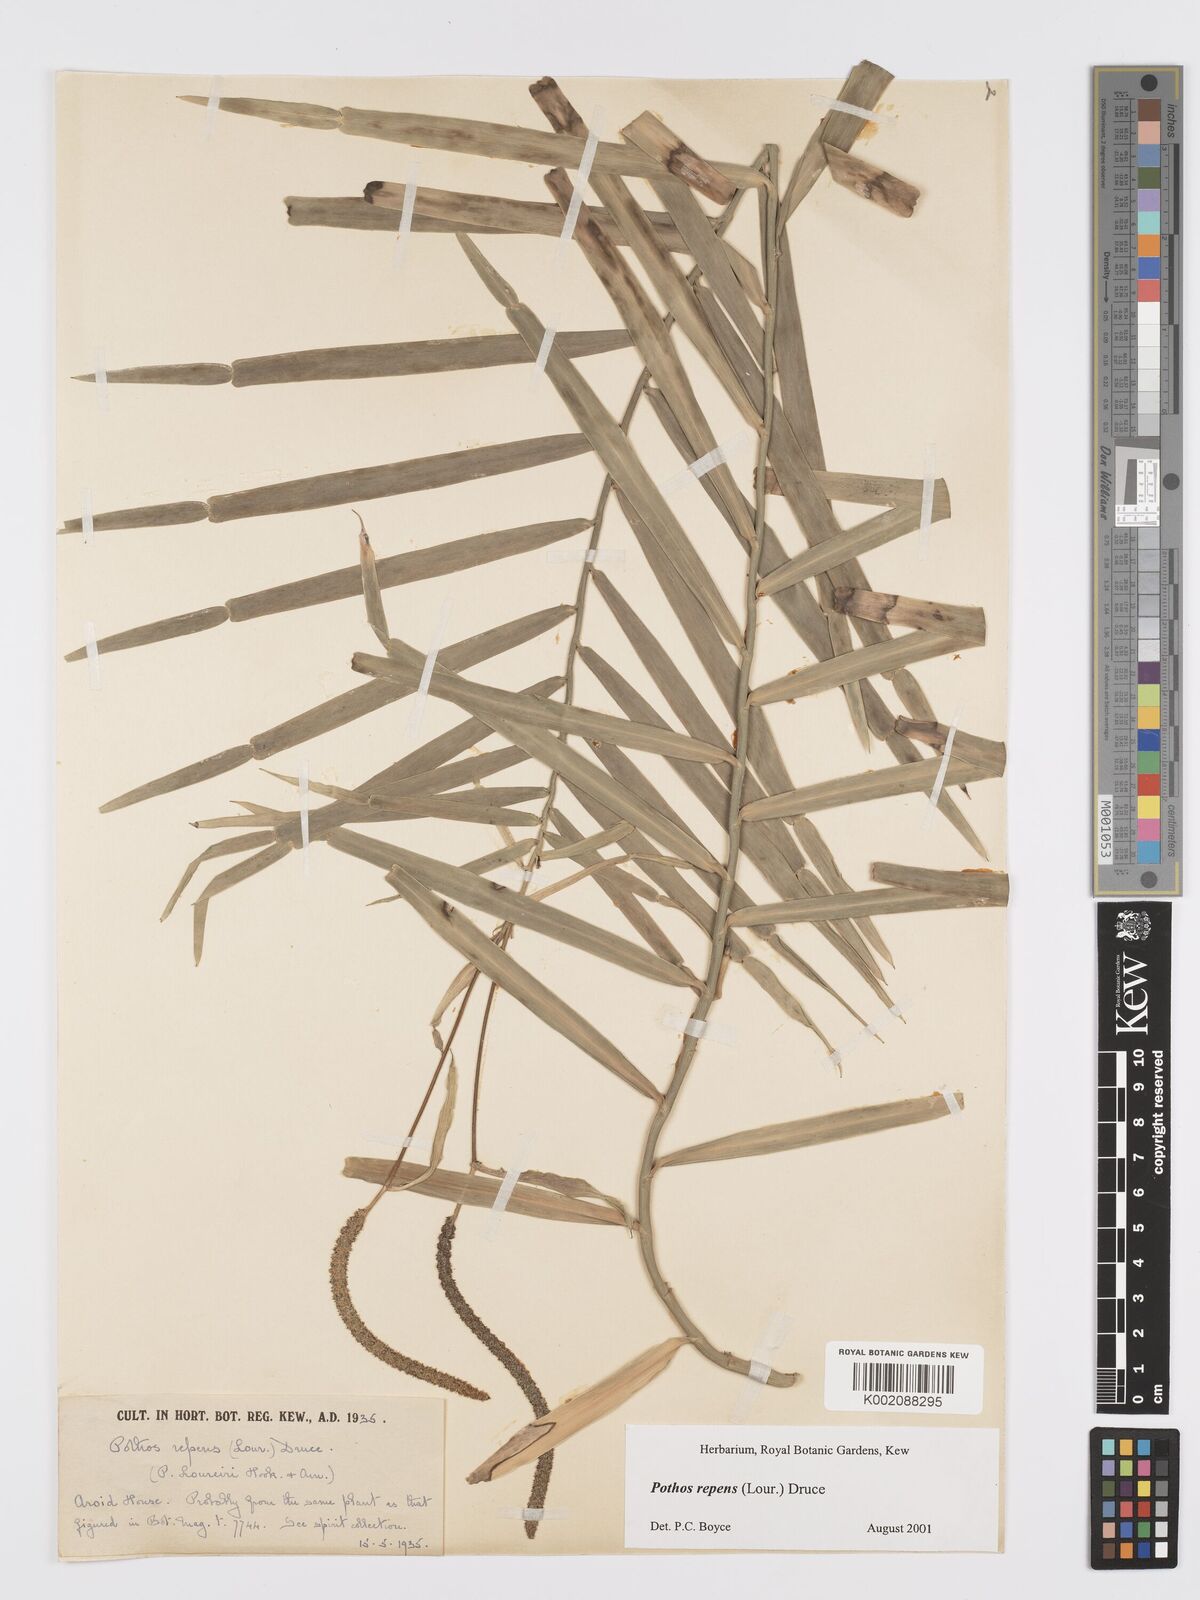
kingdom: Plantae
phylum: Tracheophyta
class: Liliopsida
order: Alismatales
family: Araceae
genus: Pothos
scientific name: Pothos repens
